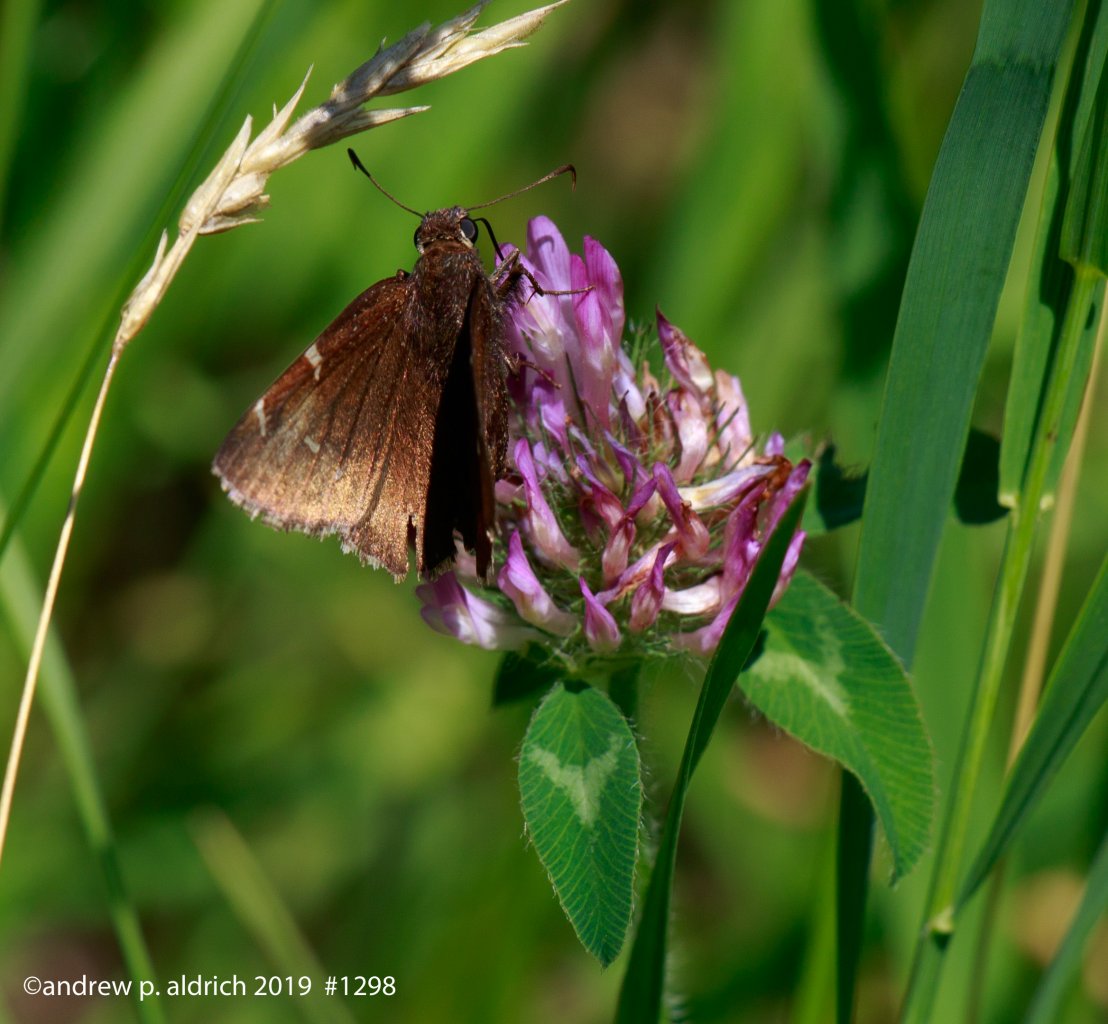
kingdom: Animalia
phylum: Arthropoda
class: Insecta
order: Lepidoptera
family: Hesperiidae
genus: Autochton
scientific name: Autochton
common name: Northern Cloudywing
